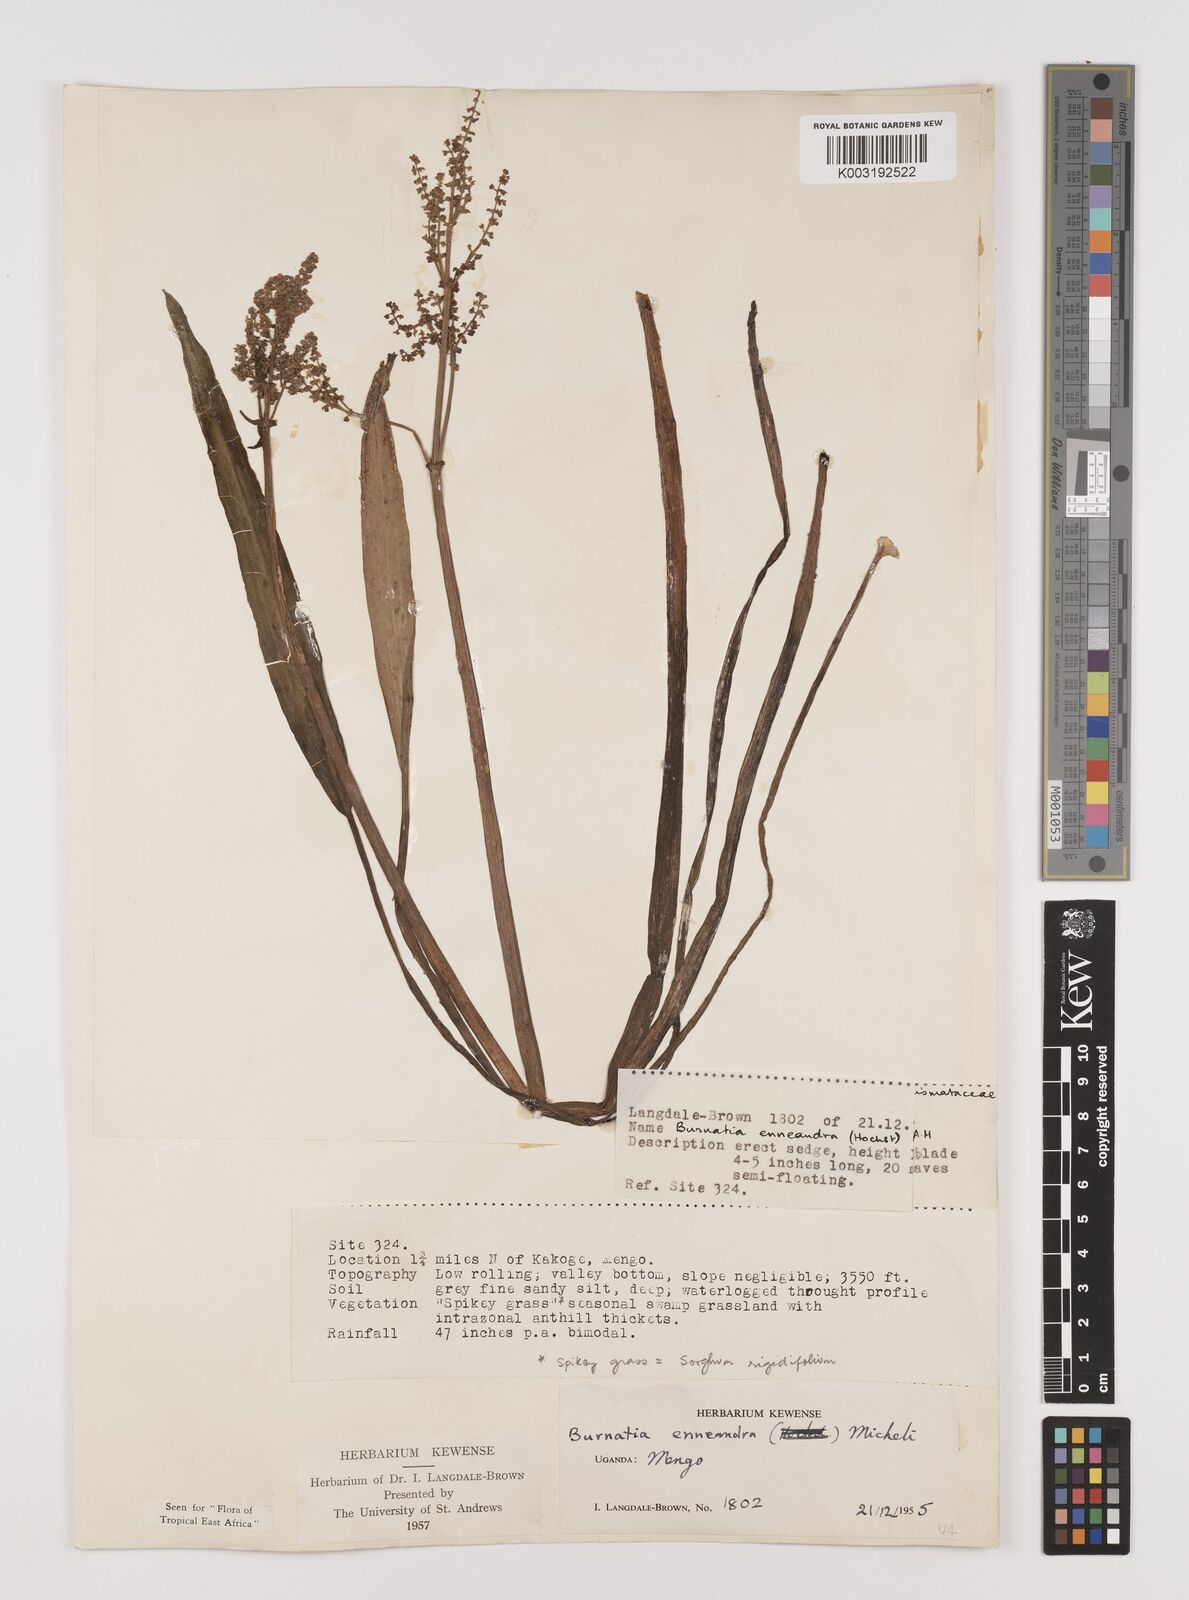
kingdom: Plantae
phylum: Tracheophyta
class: Liliopsida
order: Alismatales
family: Alismataceae
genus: Burnatia
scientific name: Burnatia enneandra
